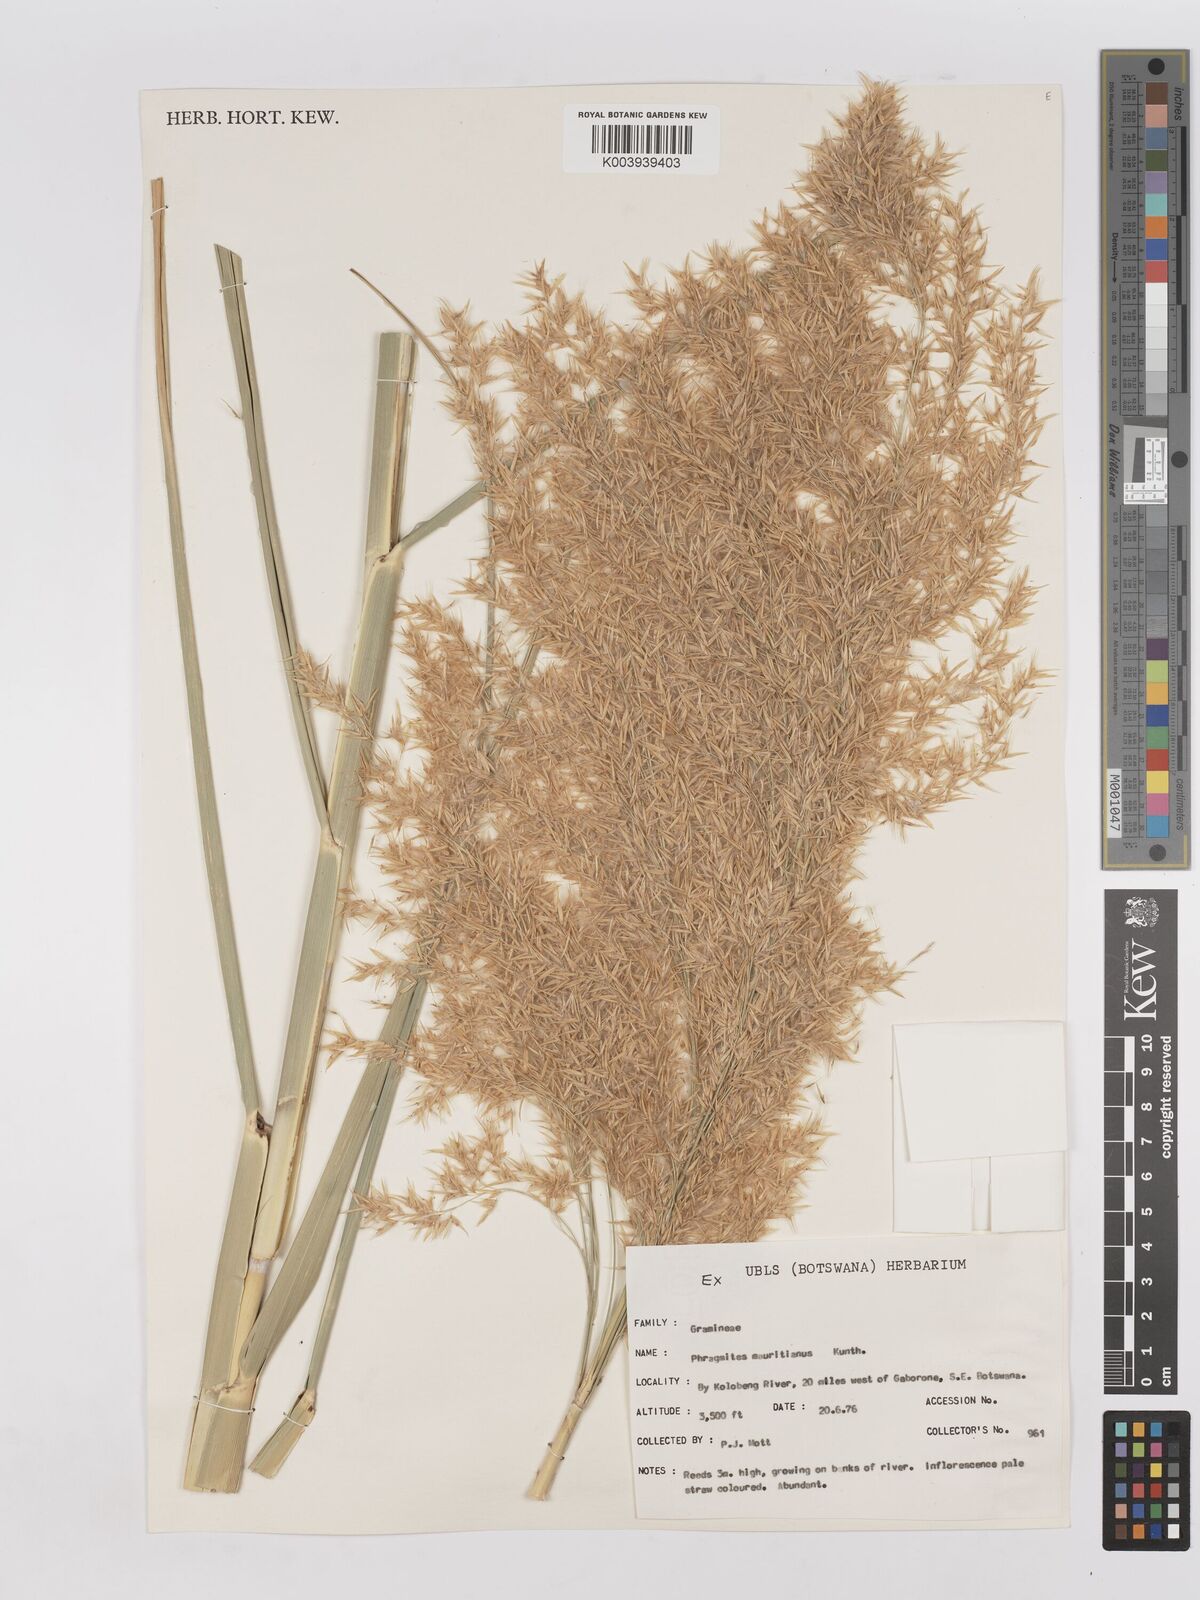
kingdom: Plantae
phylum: Tracheophyta
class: Liliopsida
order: Poales
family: Poaceae
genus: Phragmites
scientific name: Phragmites australis
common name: Common reed
